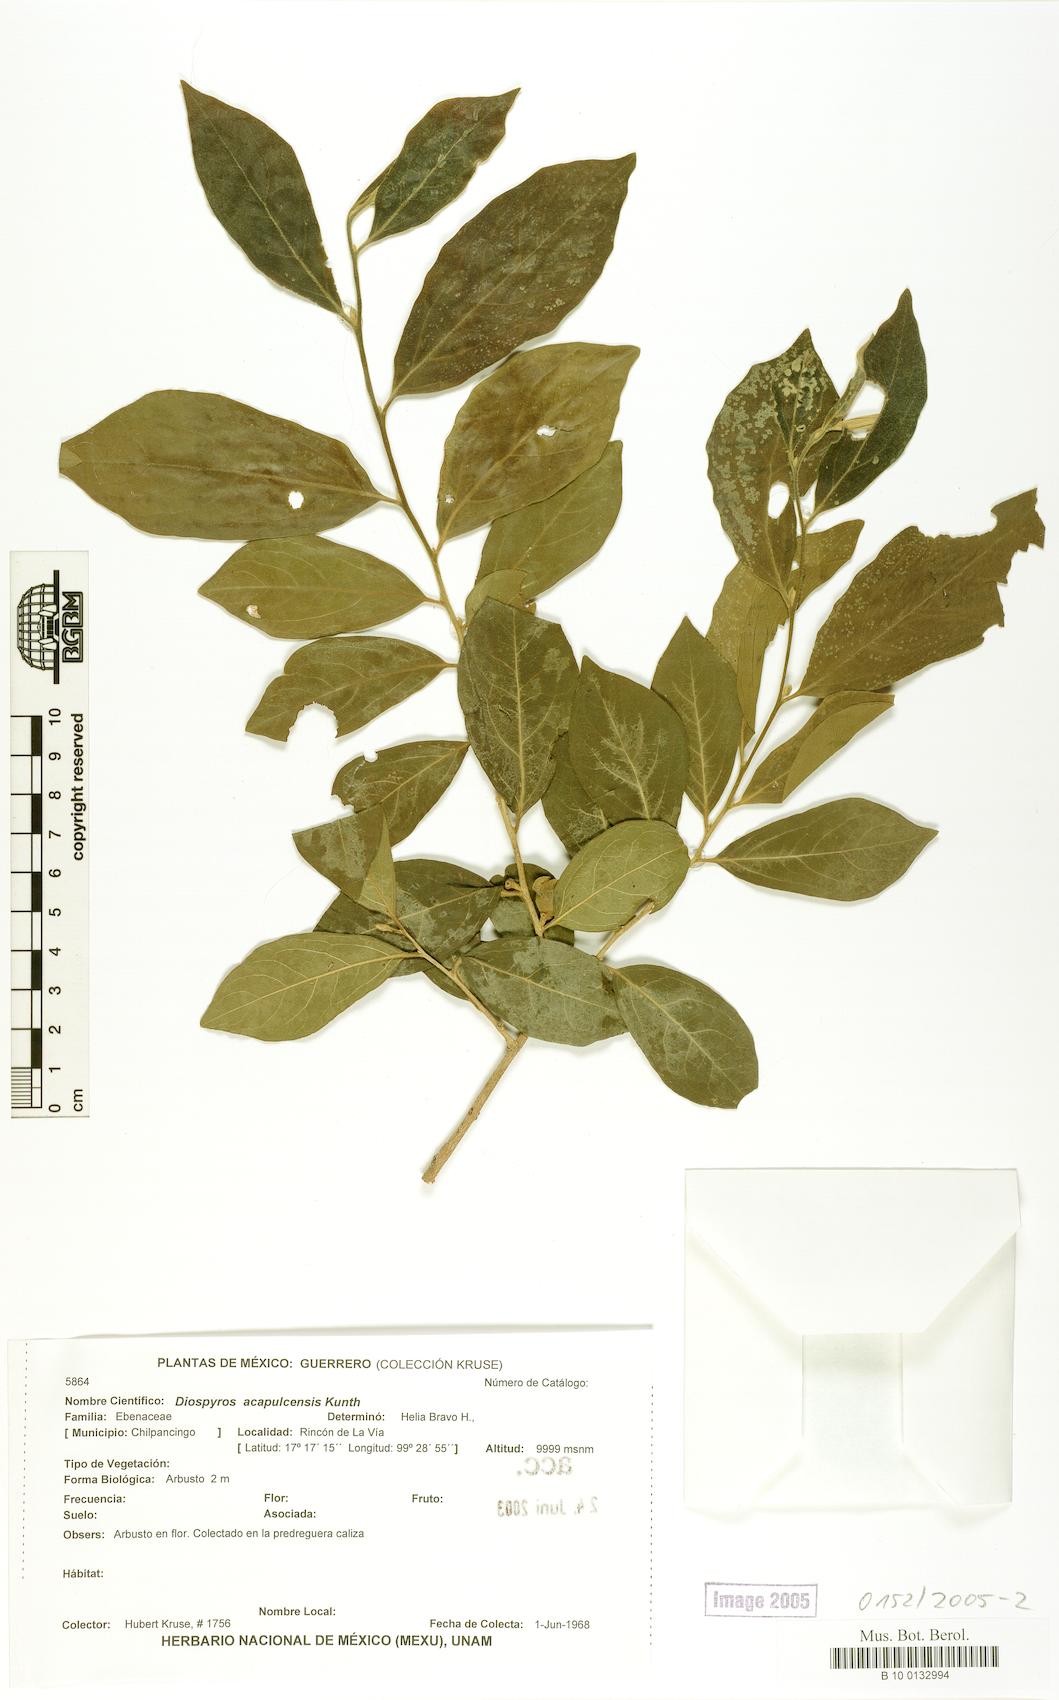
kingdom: Plantae
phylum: Tracheophyta
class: Magnoliopsida
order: Ericales
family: Ebenaceae
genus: Diospyros
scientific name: Diospyros acapulcensis
